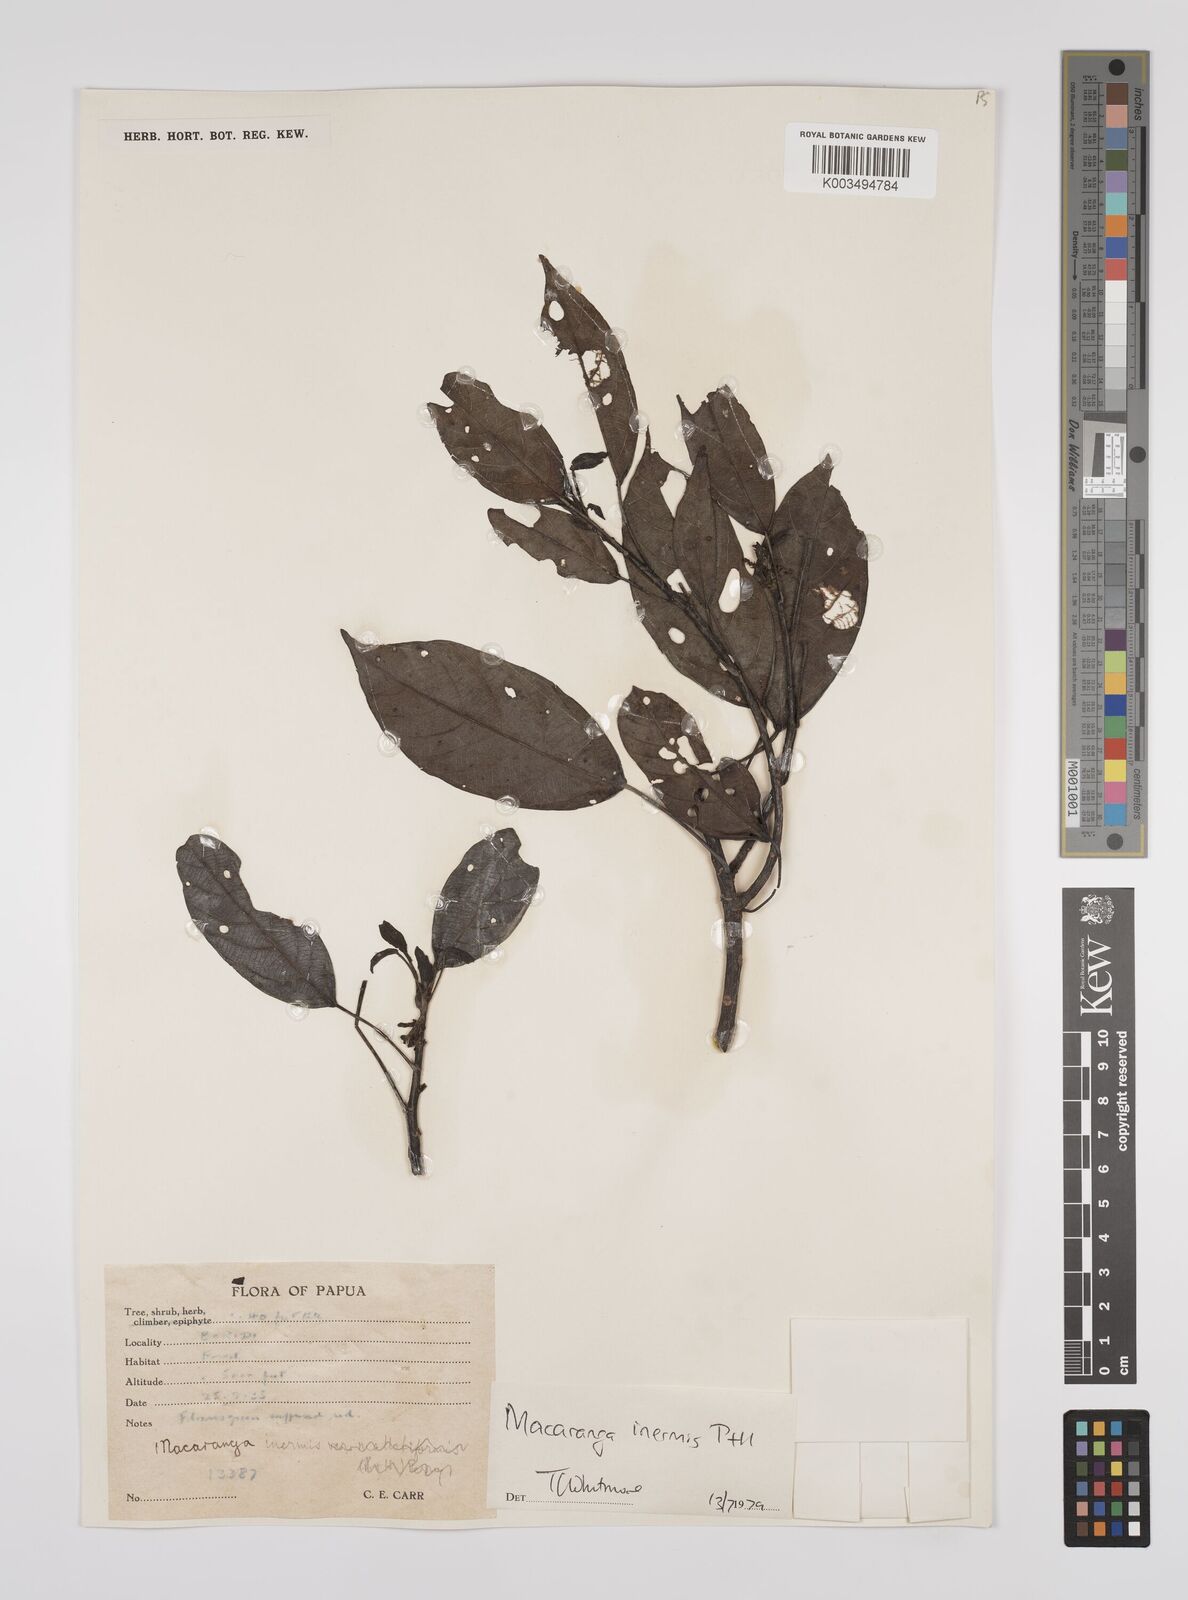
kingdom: Plantae
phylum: Tracheophyta
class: Magnoliopsida
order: Malpighiales
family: Euphorbiaceae
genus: Macaranga
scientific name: Macaranga inermis
